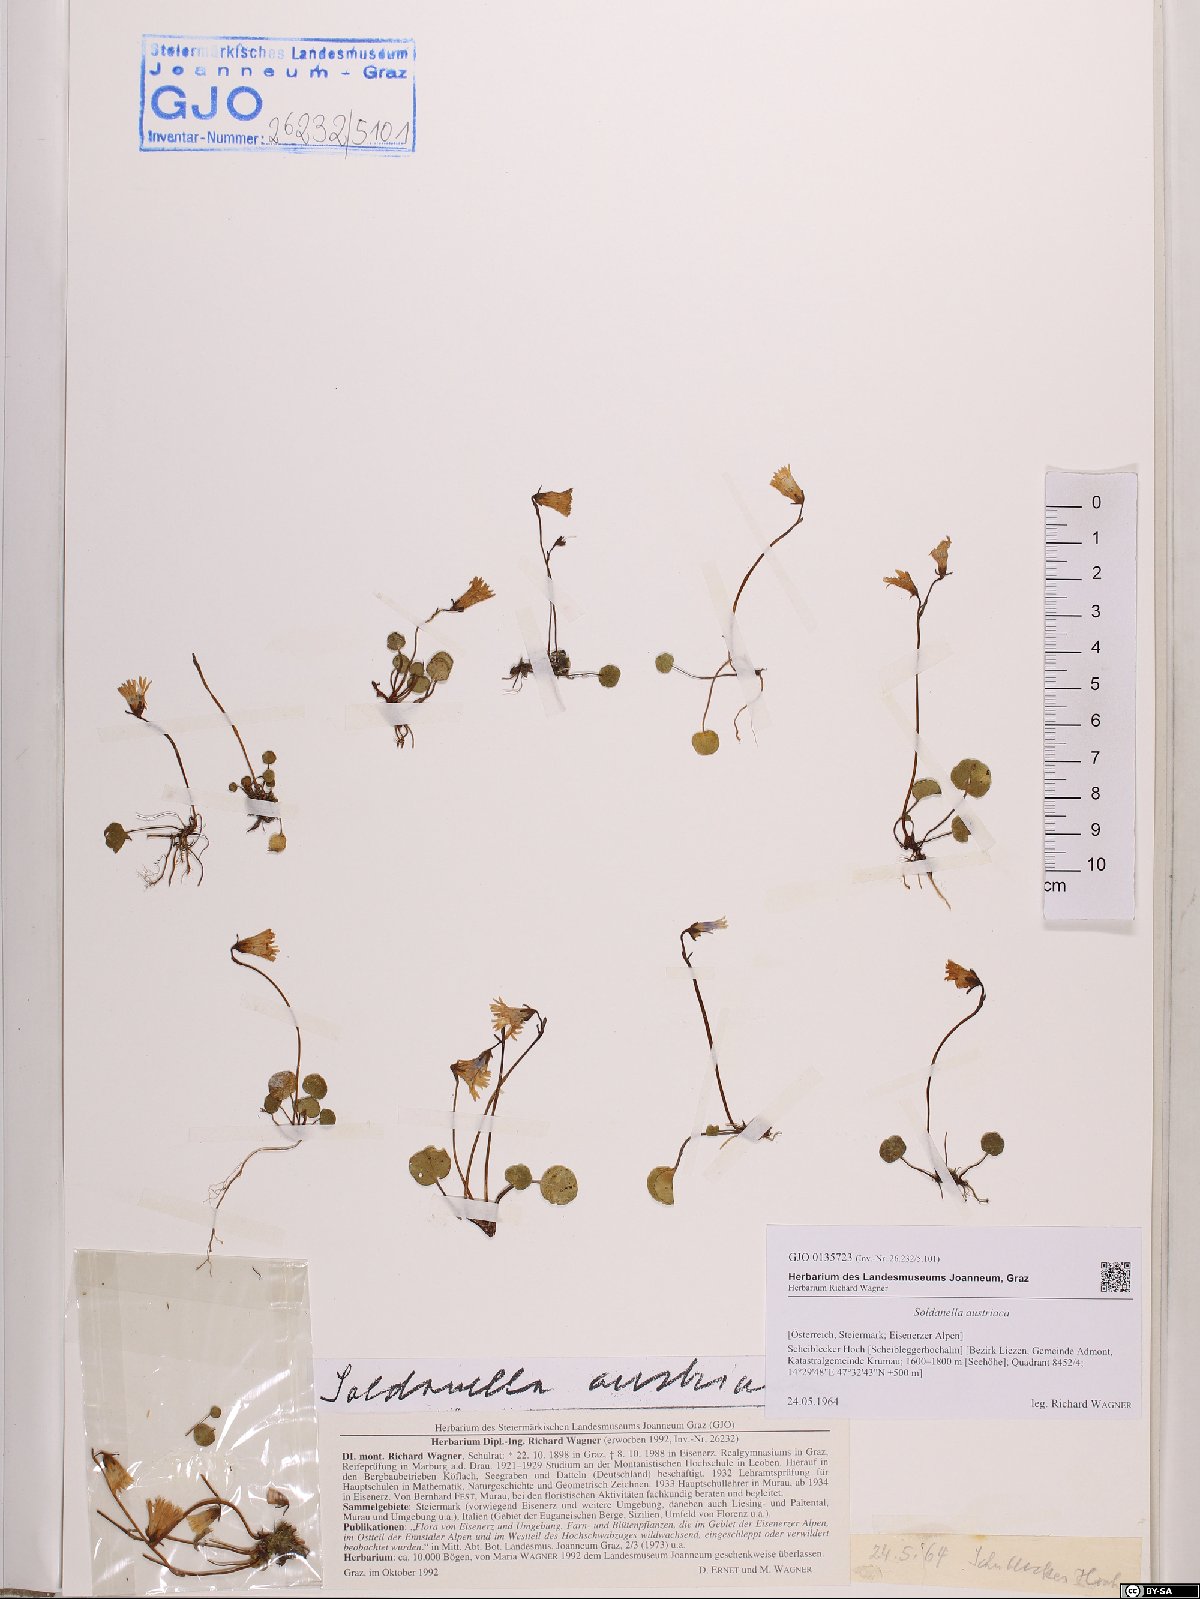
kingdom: Plantae
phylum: Tracheophyta
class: Magnoliopsida
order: Ericales
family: Primulaceae
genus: Soldanella
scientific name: Soldanella austriaca
